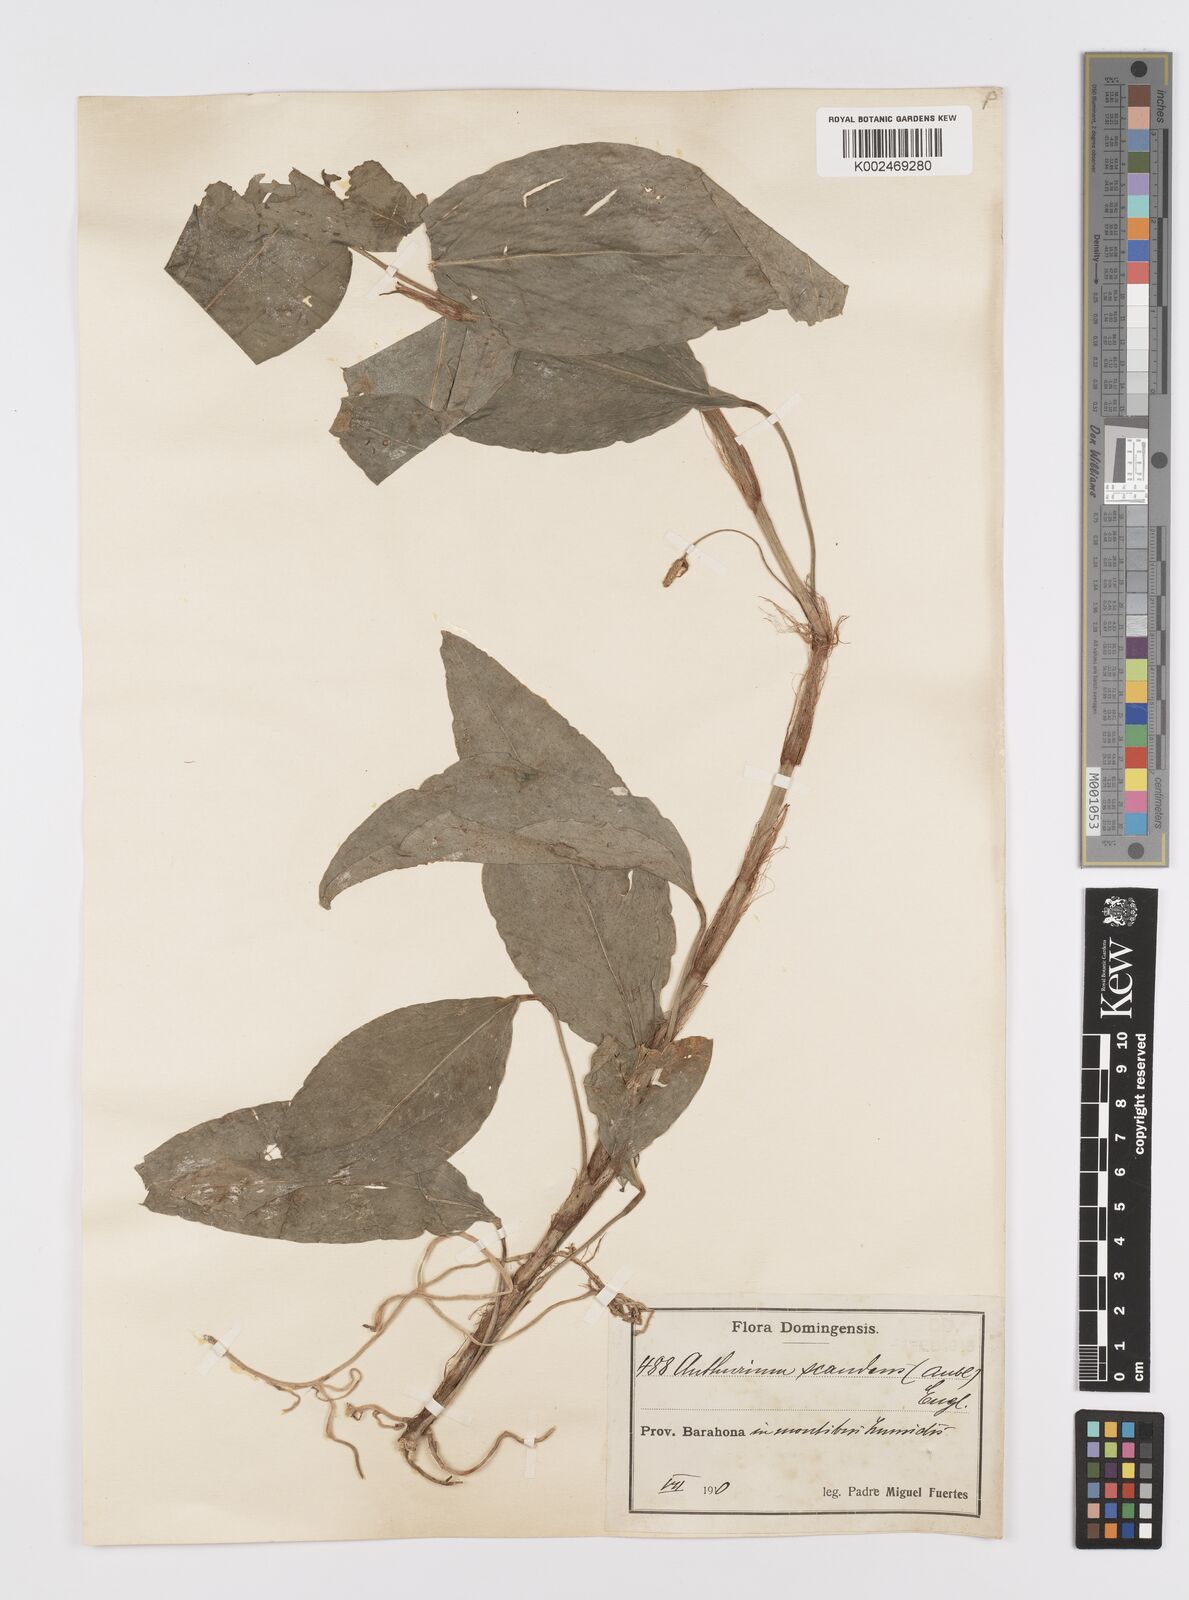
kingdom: Plantae
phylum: Tracheophyta
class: Liliopsida
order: Alismatales
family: Araceae
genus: Anthurium
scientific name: Anthurium scandens
